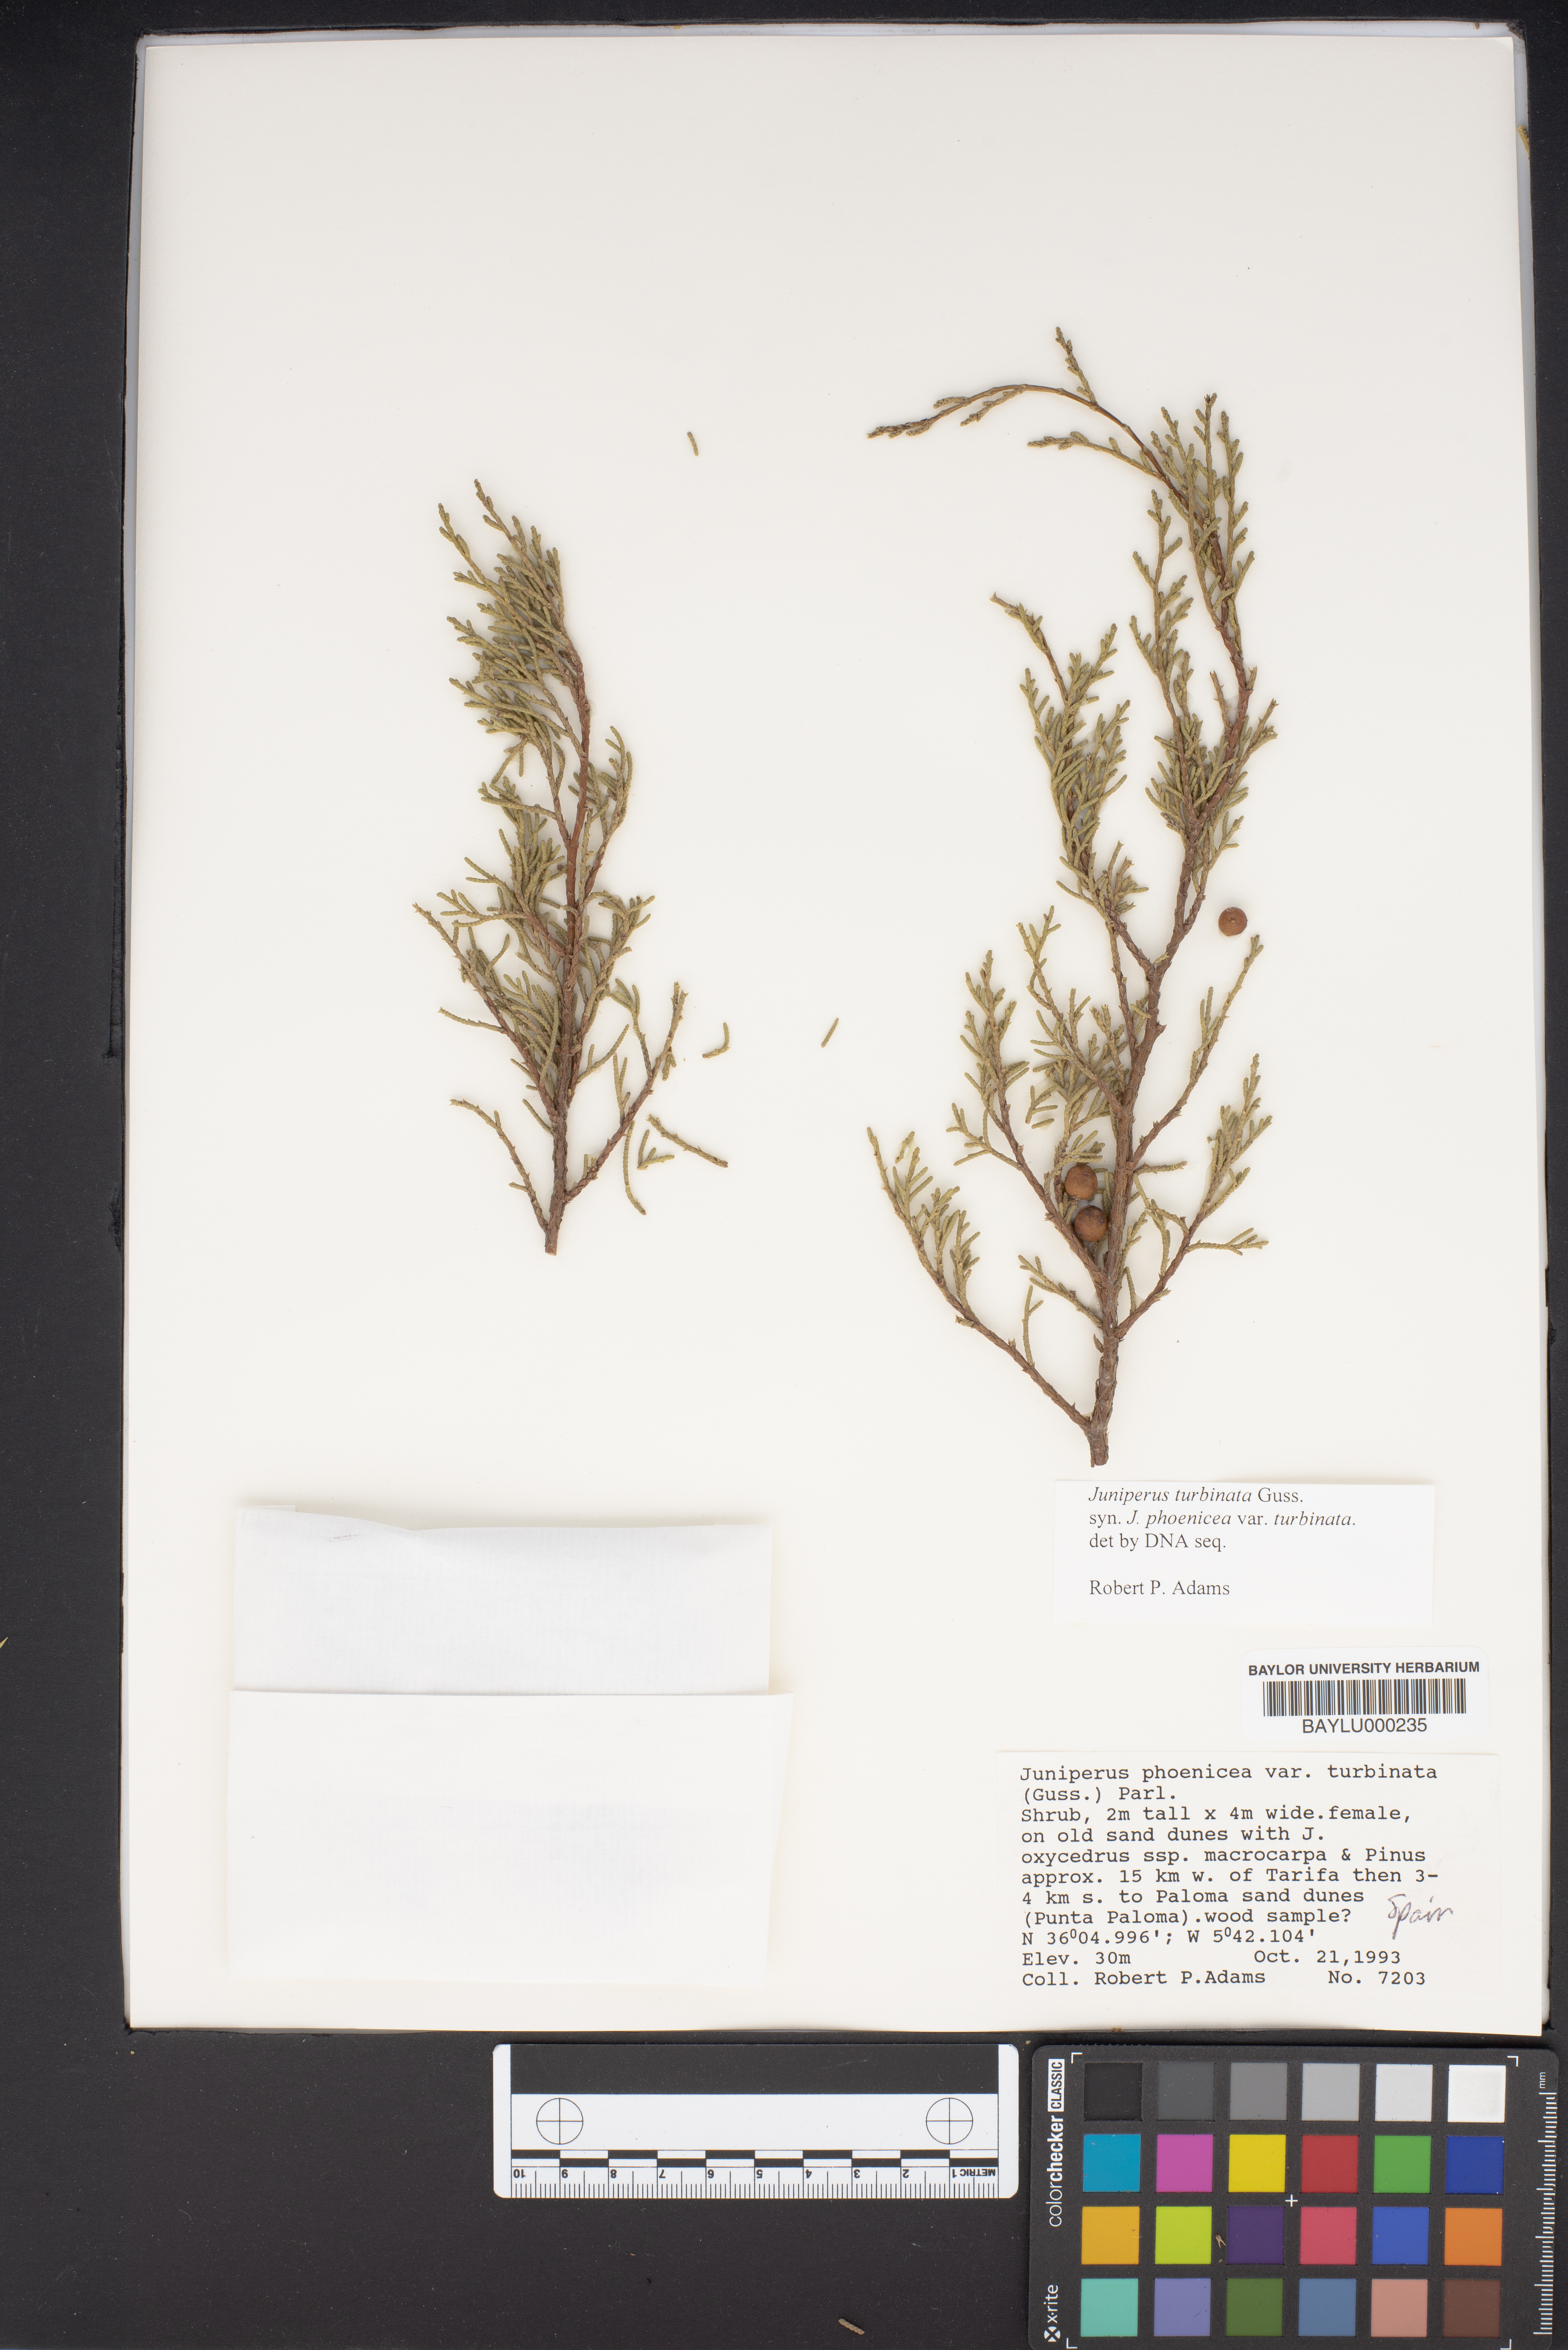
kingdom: Plantae
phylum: Tracheophyta
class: Pinopsida
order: Pinales
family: Cupressaceae
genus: Juniperus
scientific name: Juniperus phoenicea
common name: Phoenician juniper
